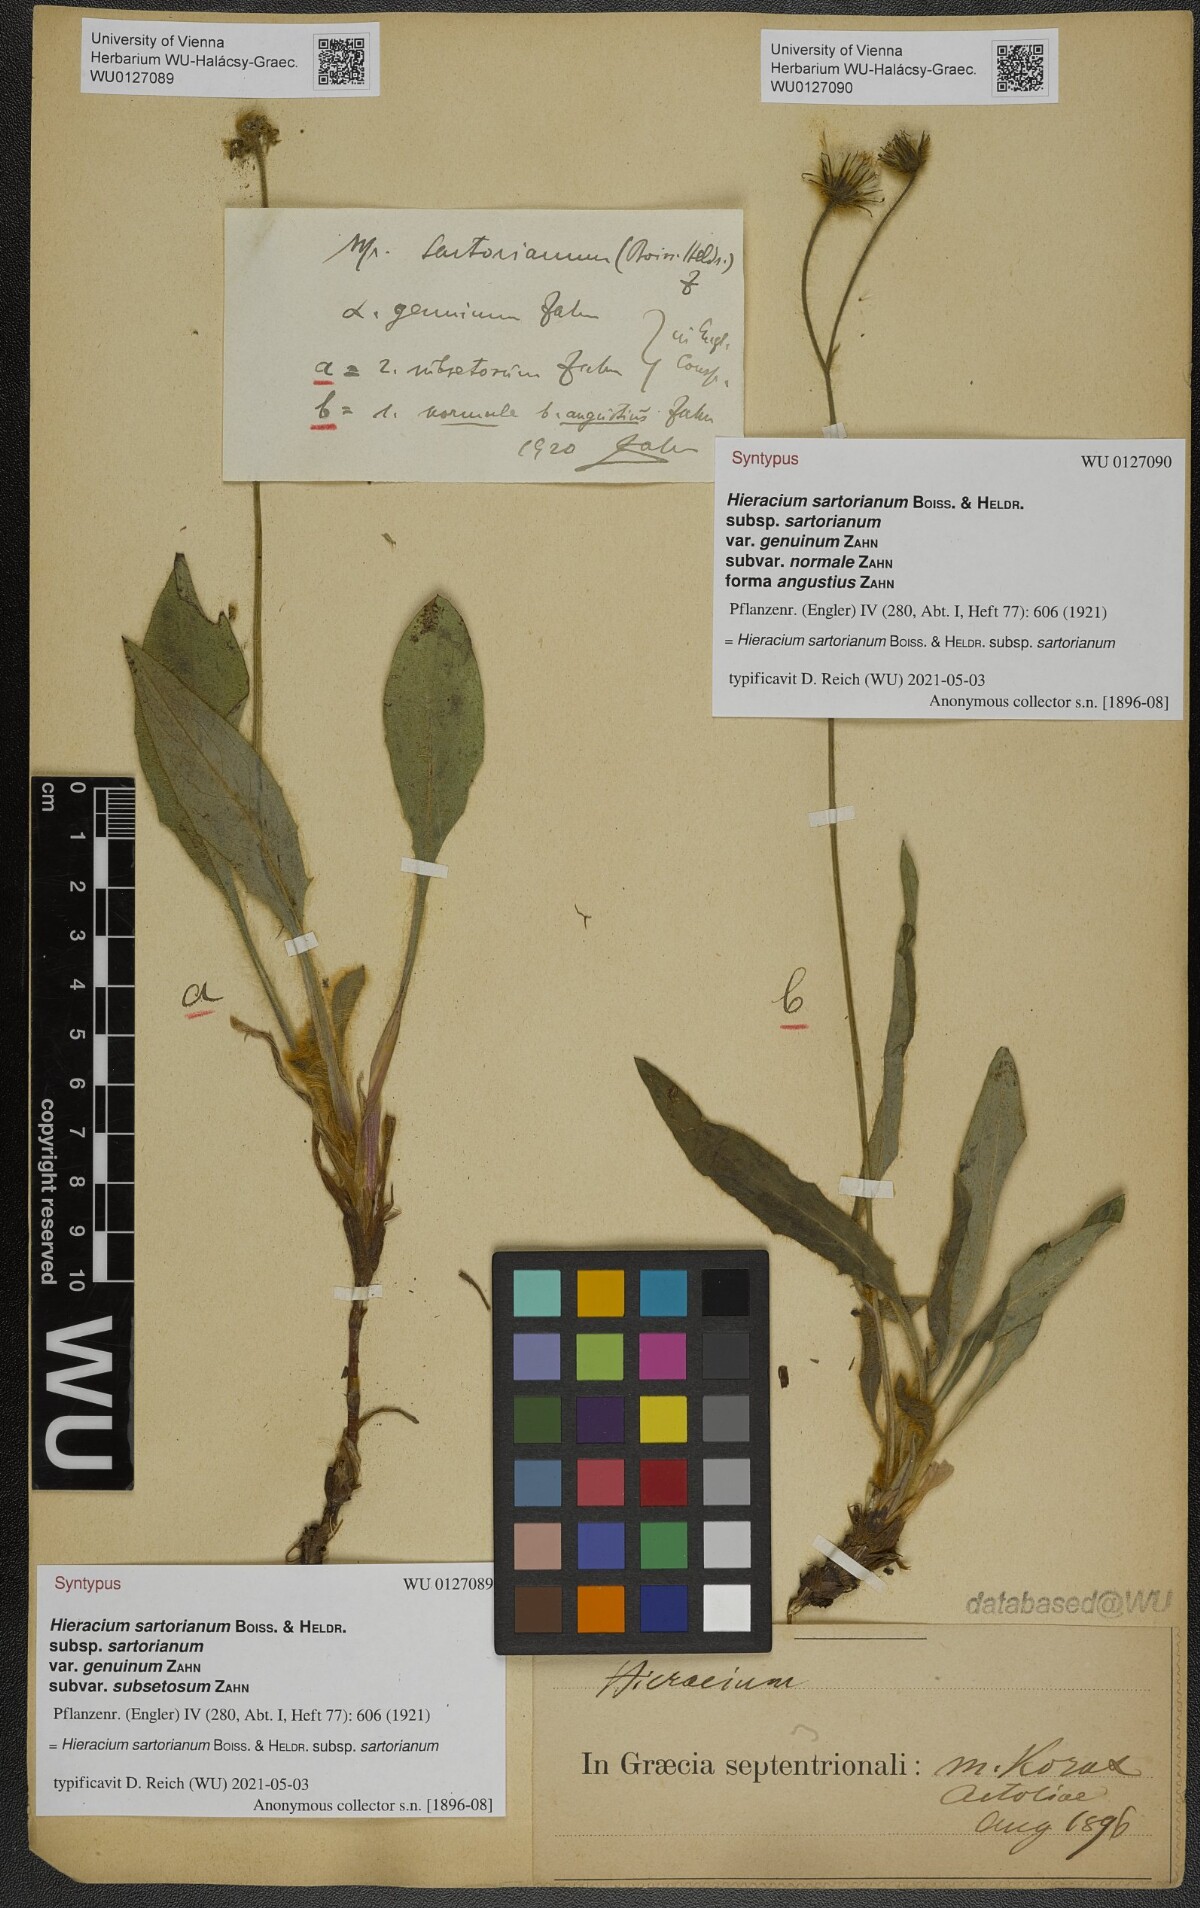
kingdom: Plantae
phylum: Tracheophyta
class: Magnoliopsida
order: Asterales
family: Asteraceae
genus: Hieracium
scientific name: Hieracium sartorianum
